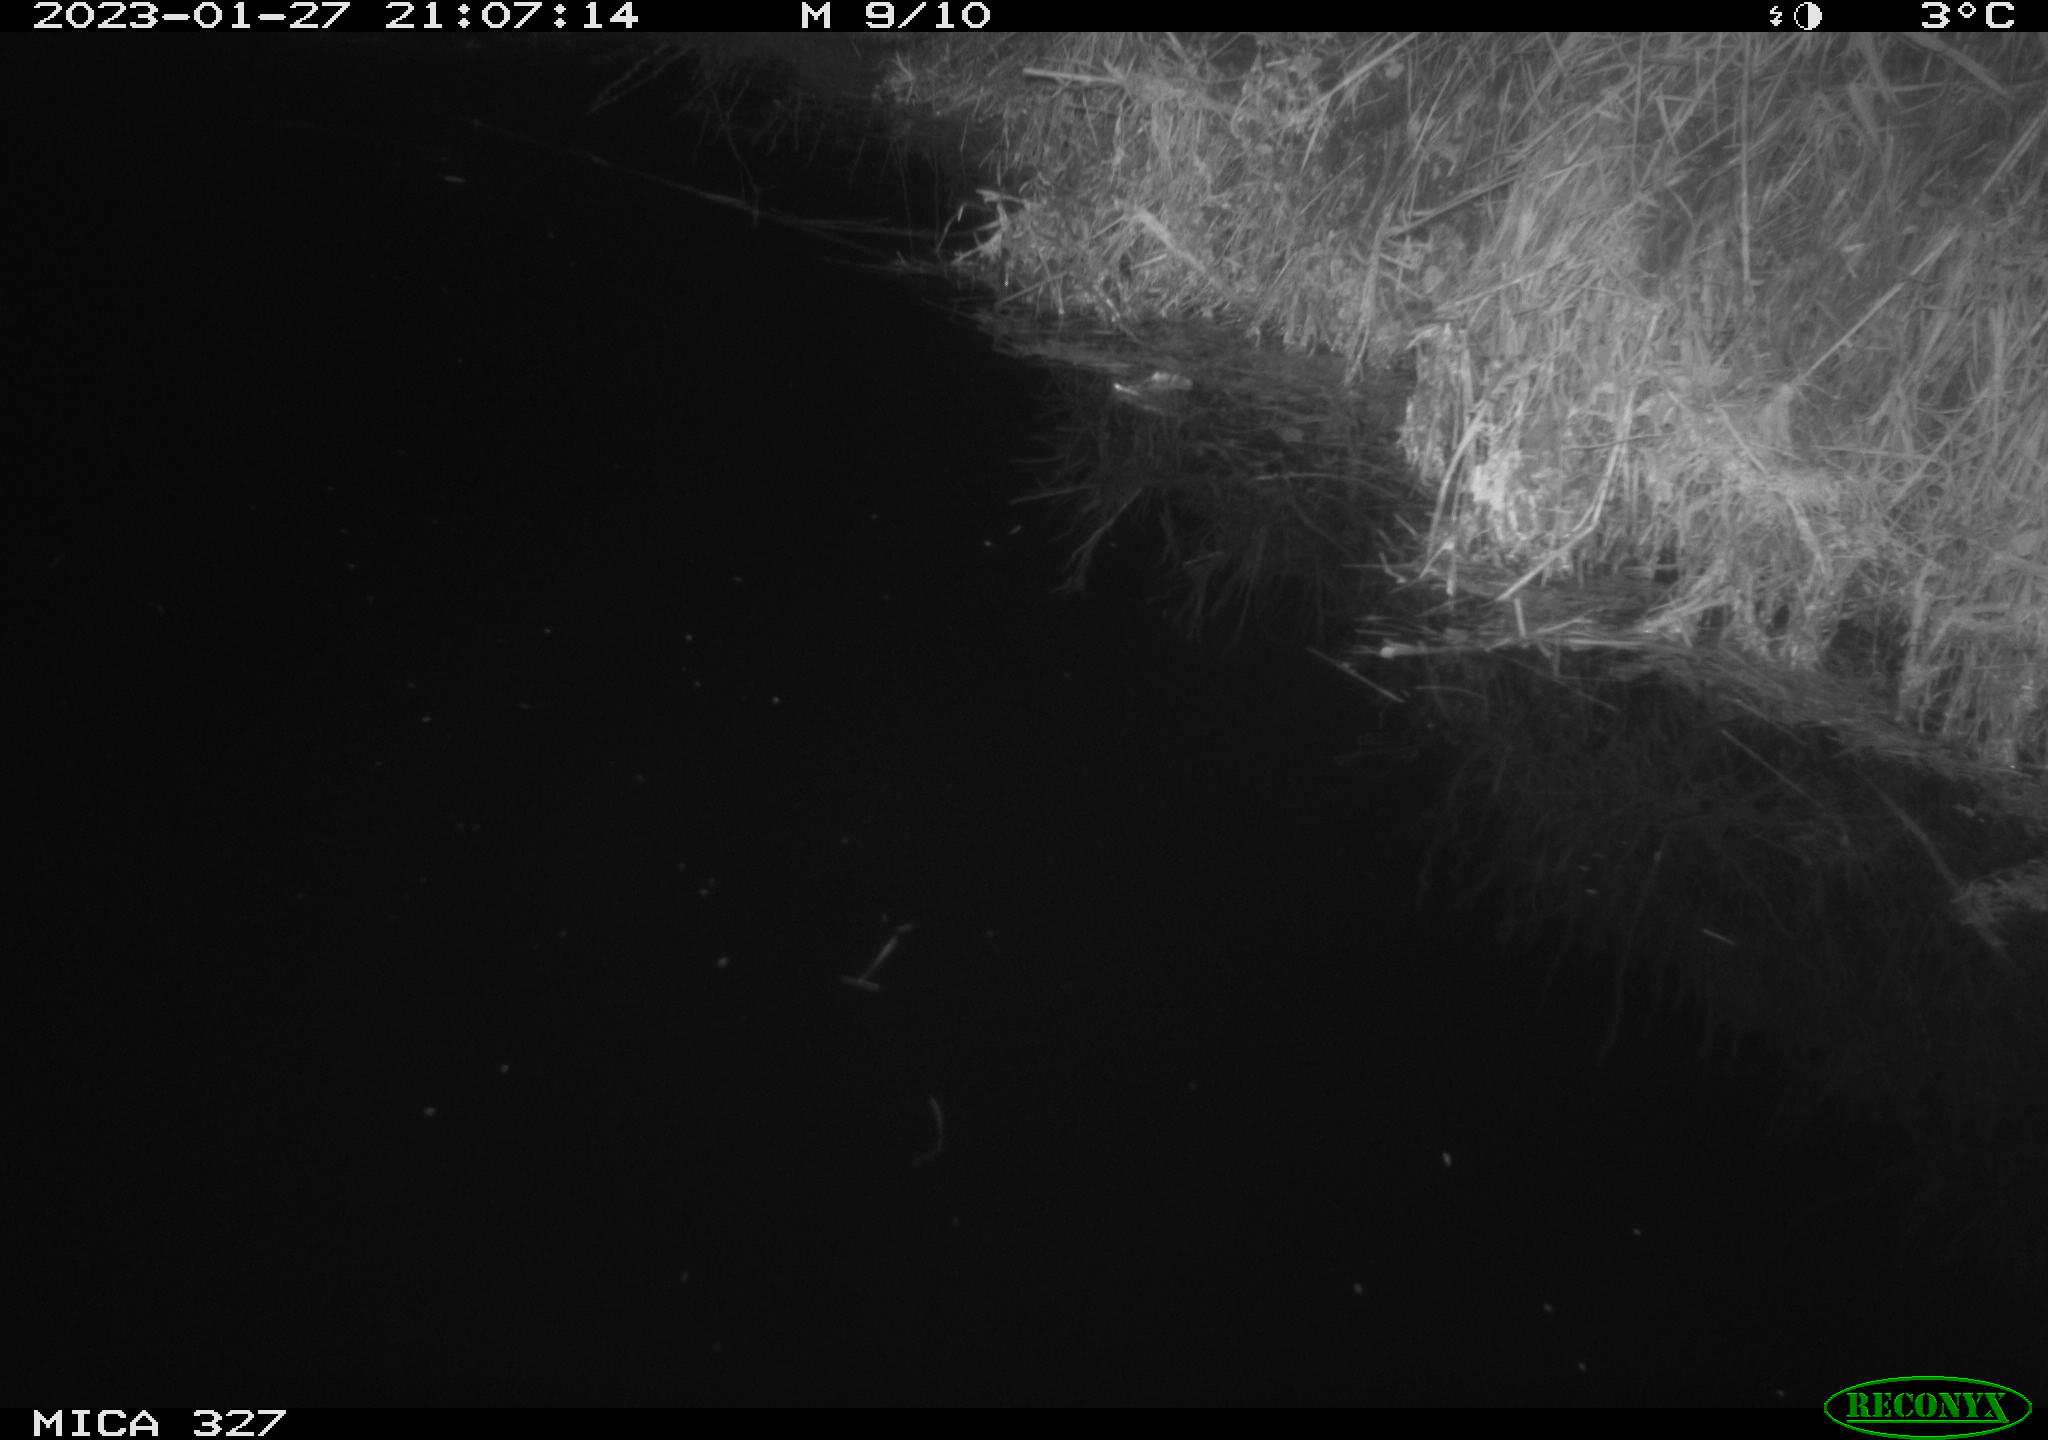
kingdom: Animalia
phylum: Chordata
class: Mammalia
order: Rodentia
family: Cricetidae
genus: Ondatra
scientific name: Ondatra zibethicus
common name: Muskrat
